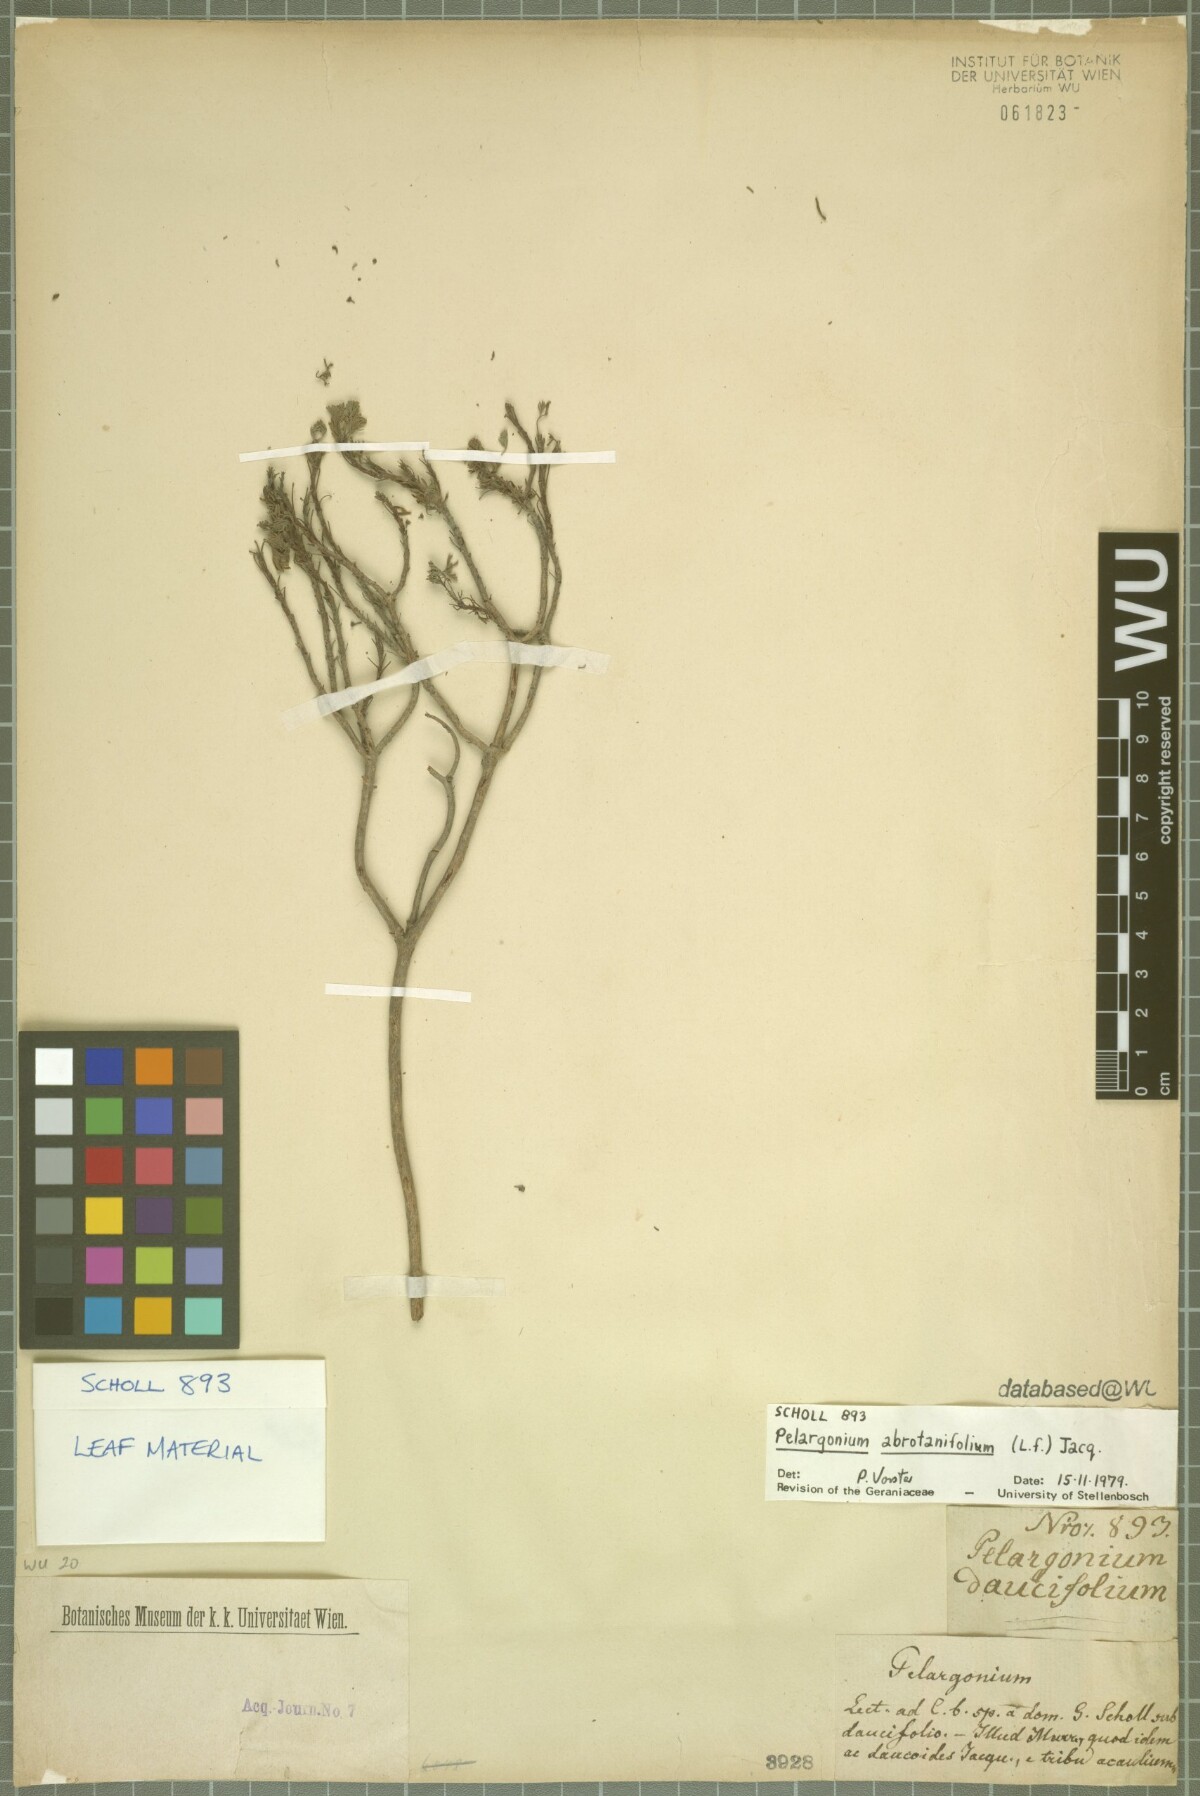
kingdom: Plantae
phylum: Tracheophyta
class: Magnoliopsida
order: Geraniales
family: Geraniaceae
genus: Pelargonium
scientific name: Pelargonium abrotanifolium
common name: Southernwood geranium
